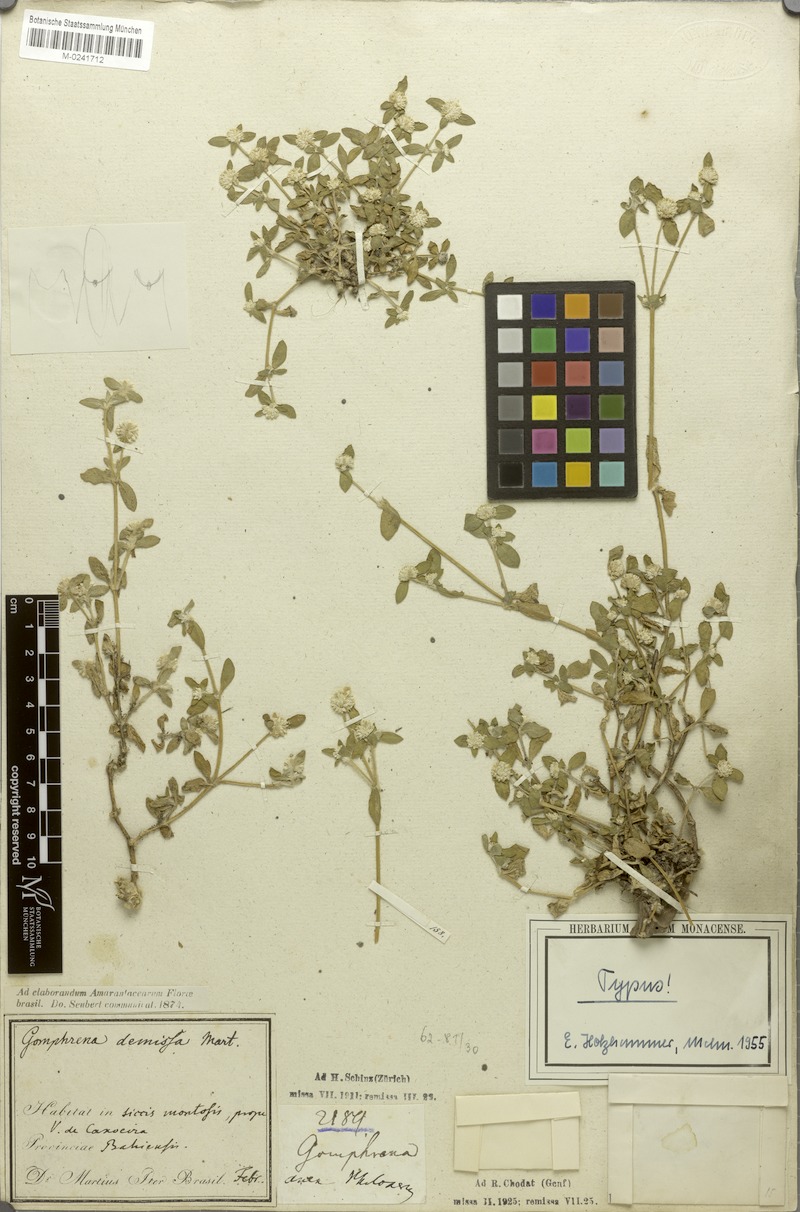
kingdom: Plantae
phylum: Tracheophyta
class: Magnoliopsida
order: Caryophyllales
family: Amaranthaceae
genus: Gomphrena
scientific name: Gomphrena demissa
